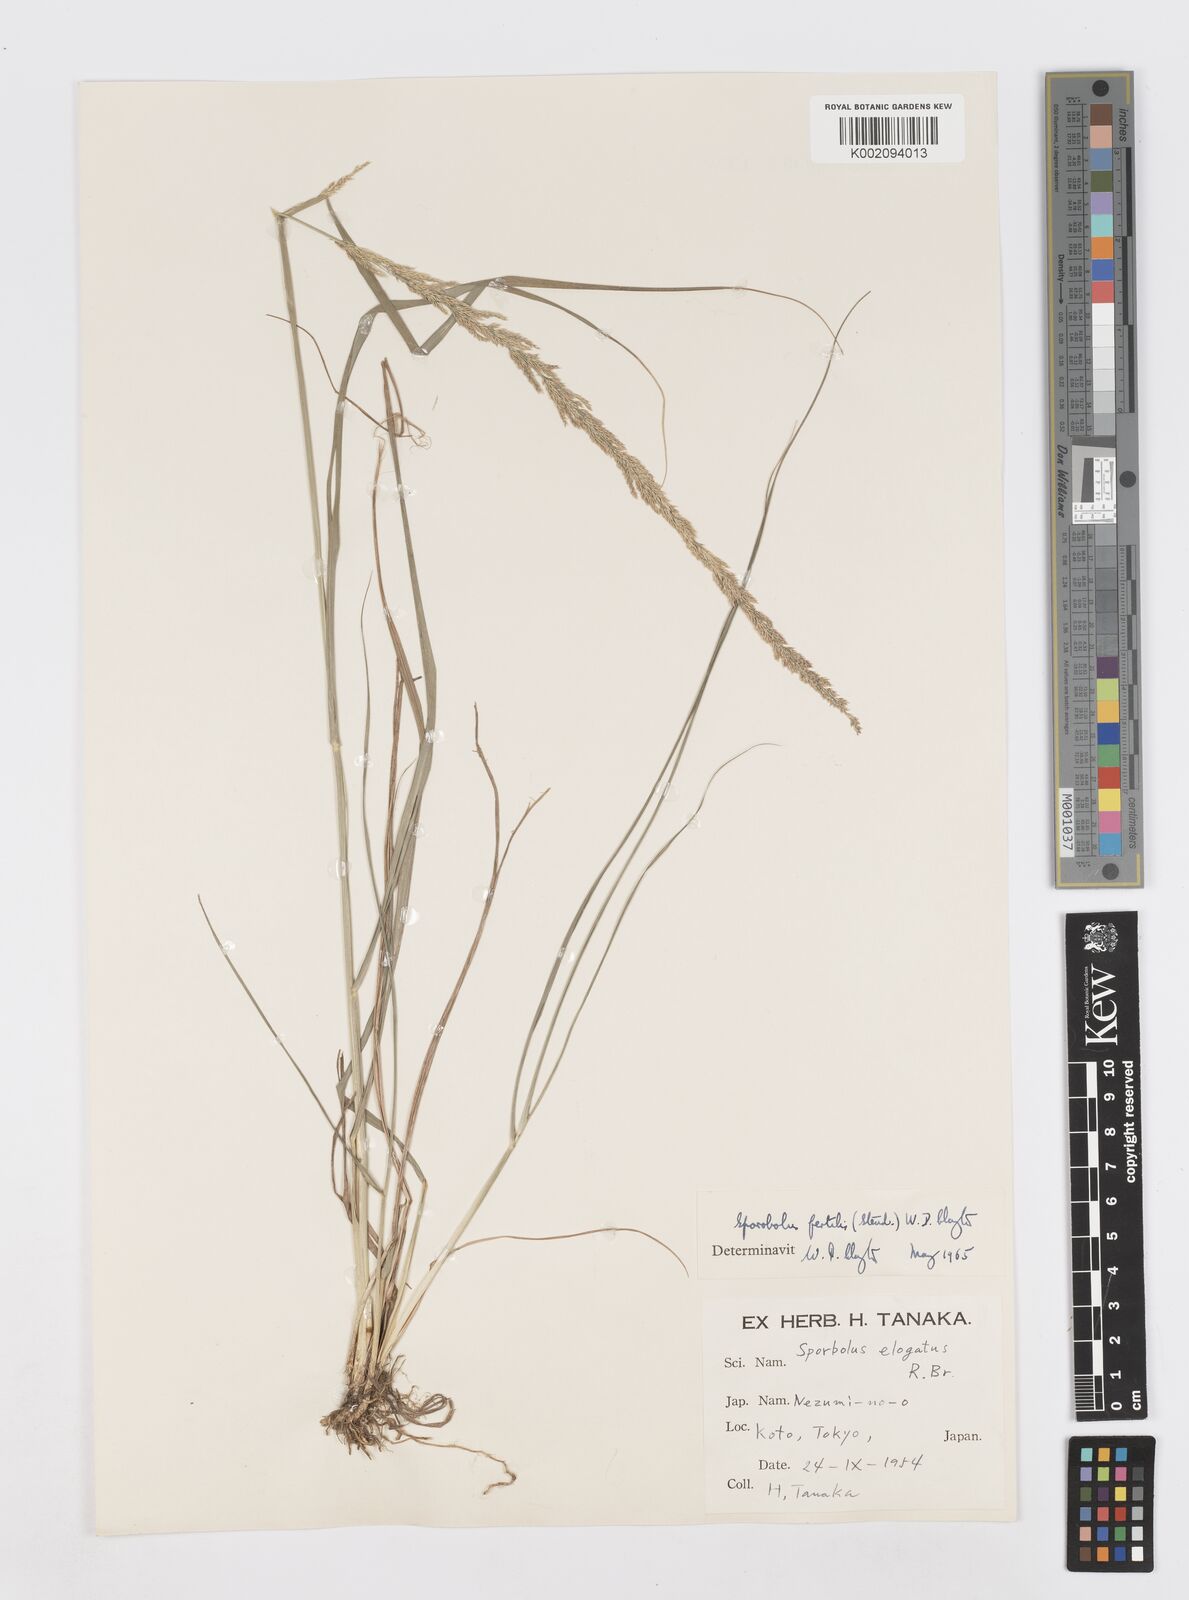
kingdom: Plantae
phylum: Tracheophyta
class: Liliopsida
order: Poales
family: Poaceae
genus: Sporobolus
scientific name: Sporobolus fertilis
